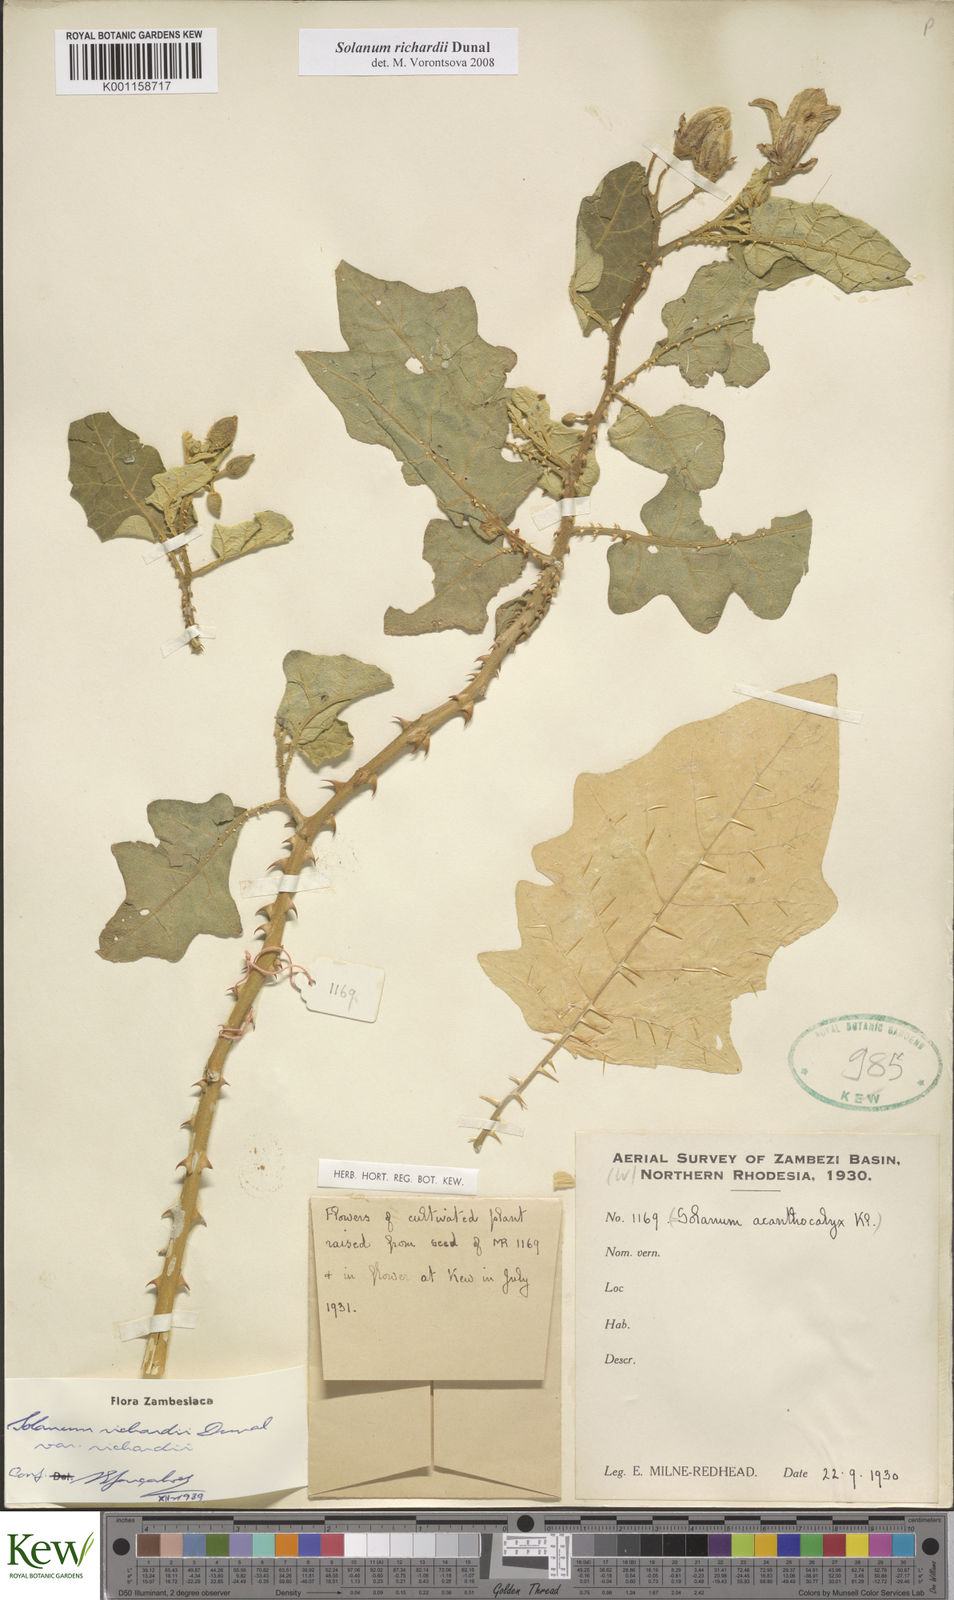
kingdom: Plantae
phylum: Tracheophyta
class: Magnoliopsida
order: Solanales
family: Solanaceae
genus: Solanum
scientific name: Solanum richardii
